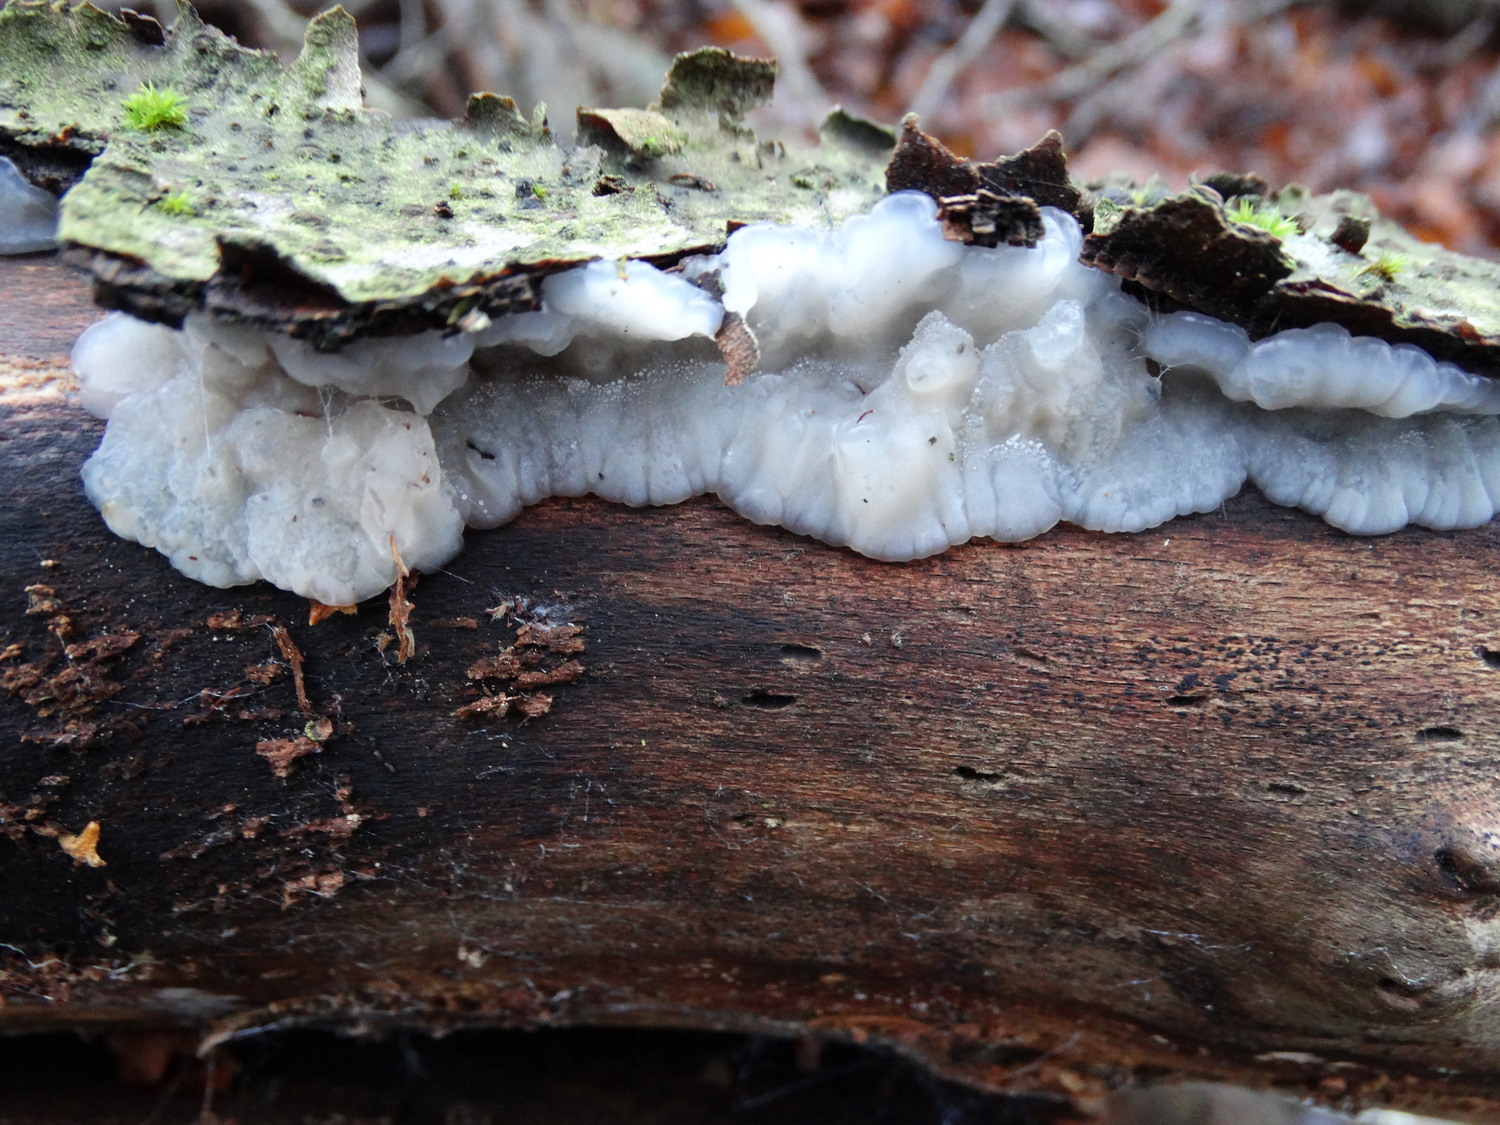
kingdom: Fungi
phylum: Basidiomycota
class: Agaricomycetes
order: Auriculariales
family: Auriculariaceae
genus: Exidia
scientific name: Exidia thuretiana
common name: hvidlig bævretop
